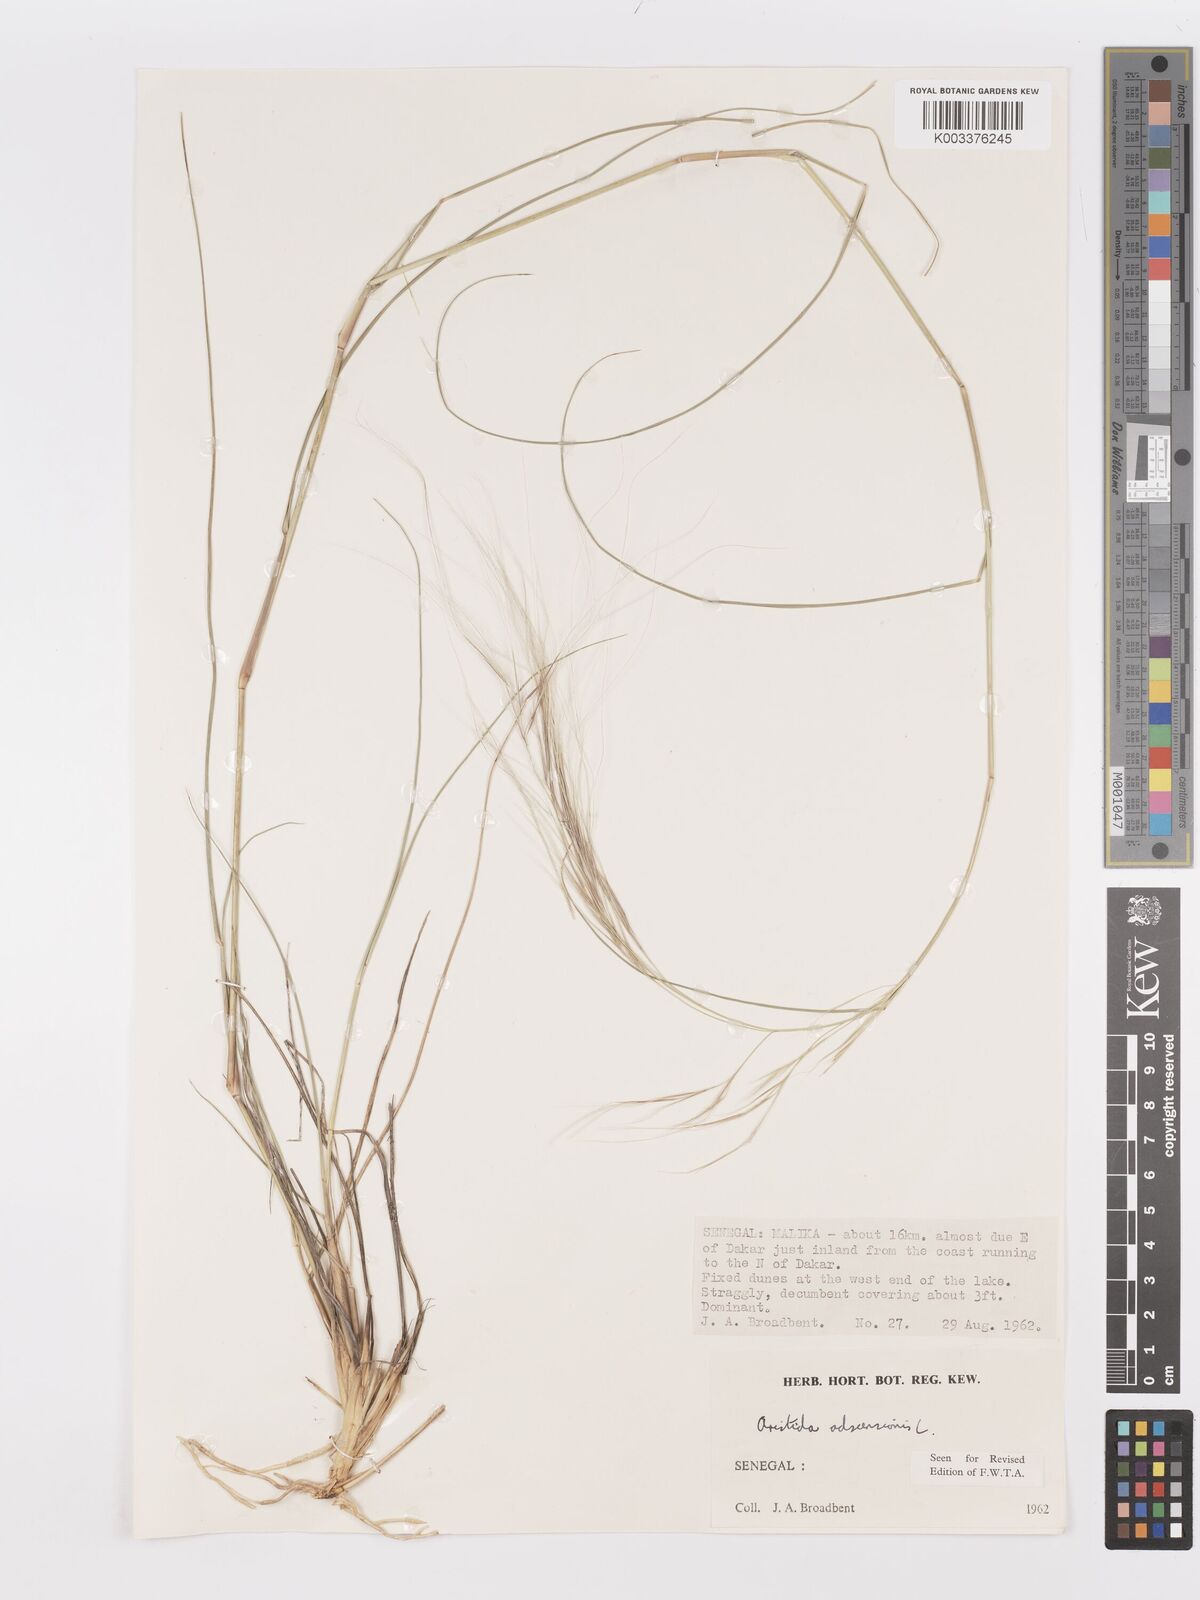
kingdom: Plantae
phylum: Tracheophyta
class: Liliopsida
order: Poales
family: Poaceae
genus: Aristida
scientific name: Aristida adscensionis
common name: Sixweeks threeawn
